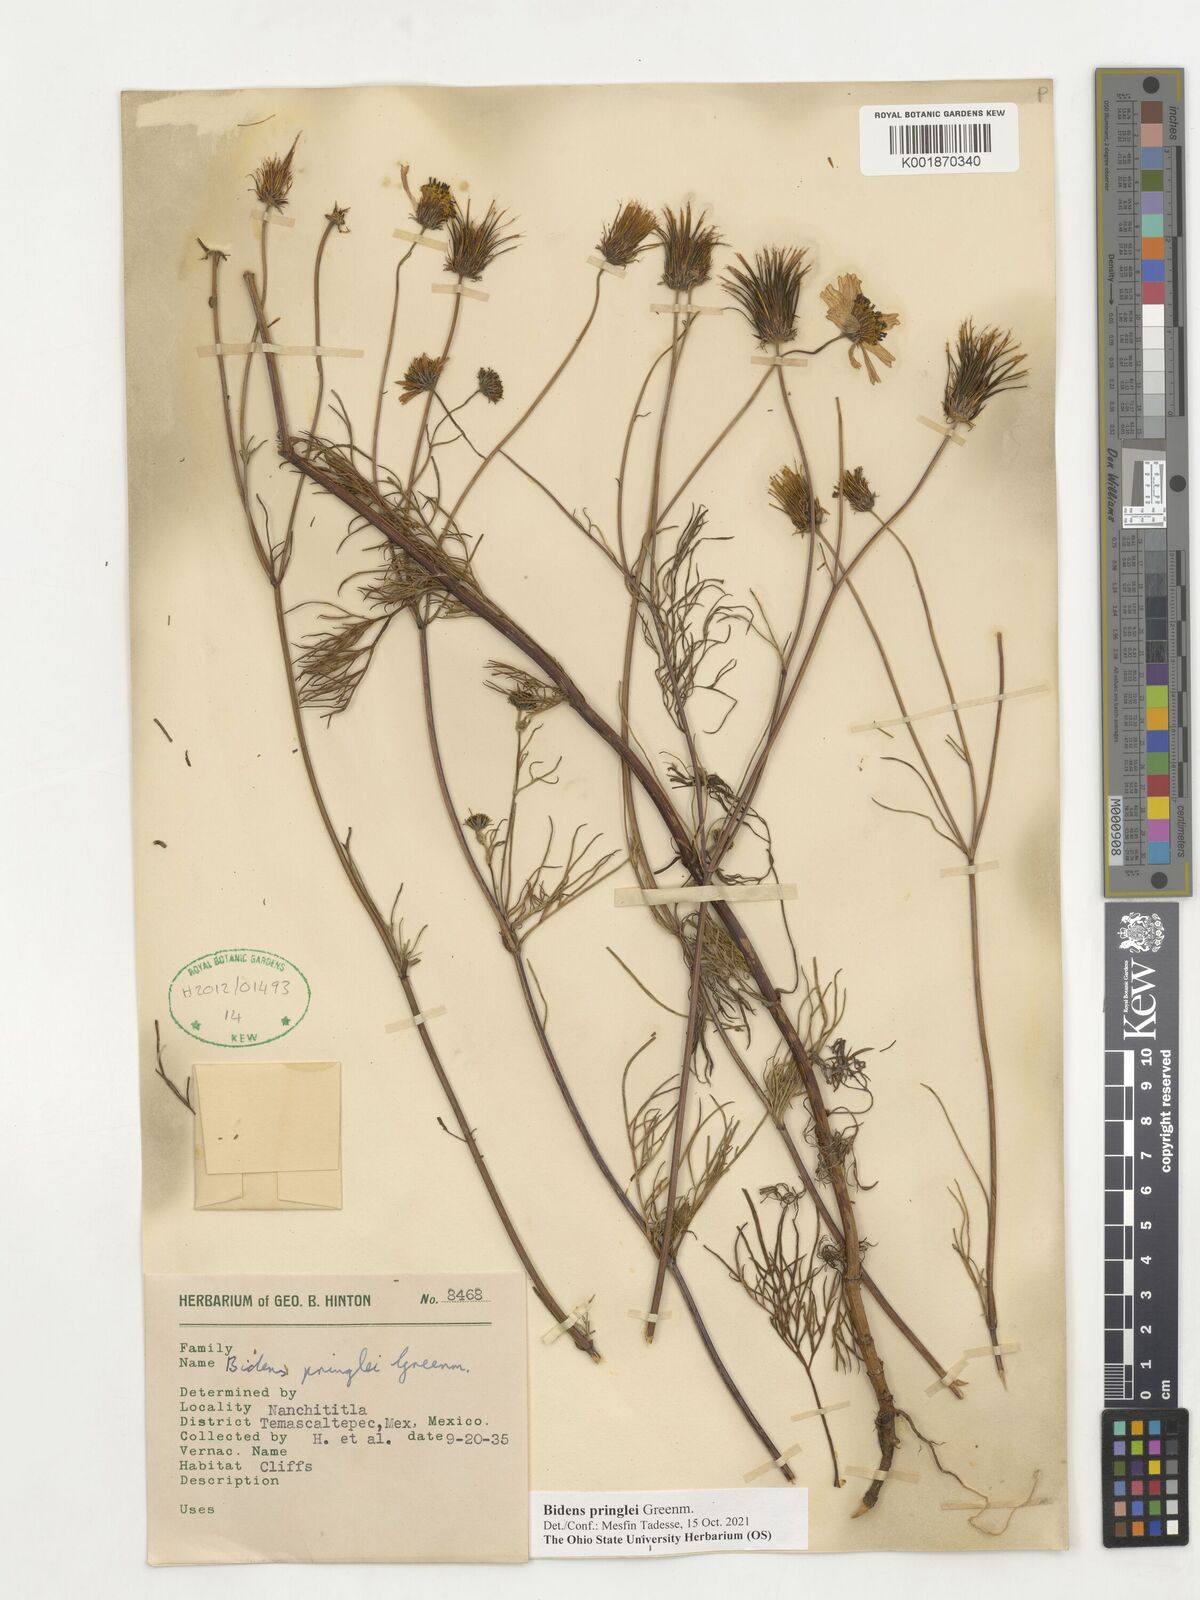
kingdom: Plantae
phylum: Tracheophyta
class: Magnoliopsida
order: Asterales
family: Asteraceae
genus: Bidens
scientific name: Bidens pringlei
